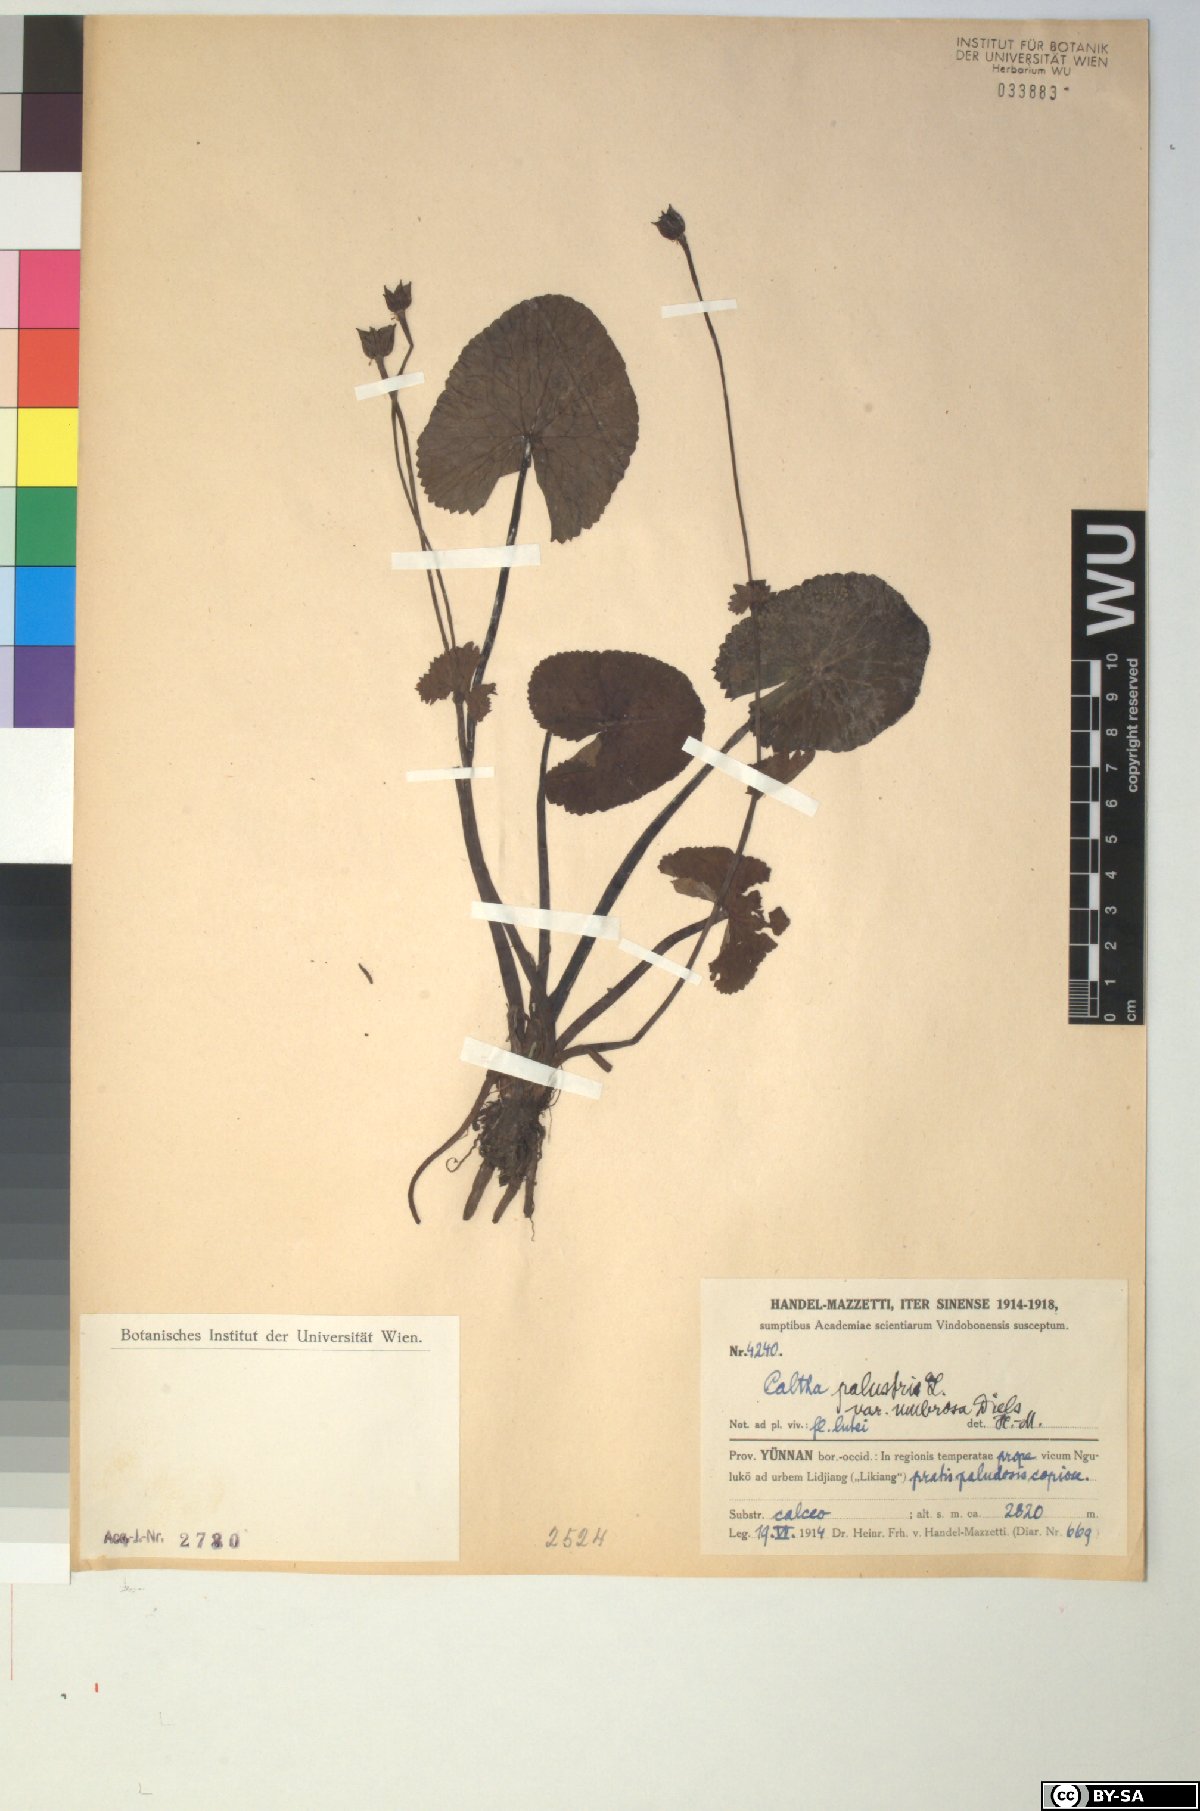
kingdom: Plantae
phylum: Tracheophyta
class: Magnoliopsida
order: Ranunculales
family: Ranunculaceae
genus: Caltha
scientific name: Caltha palustris
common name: Marsh marigold
